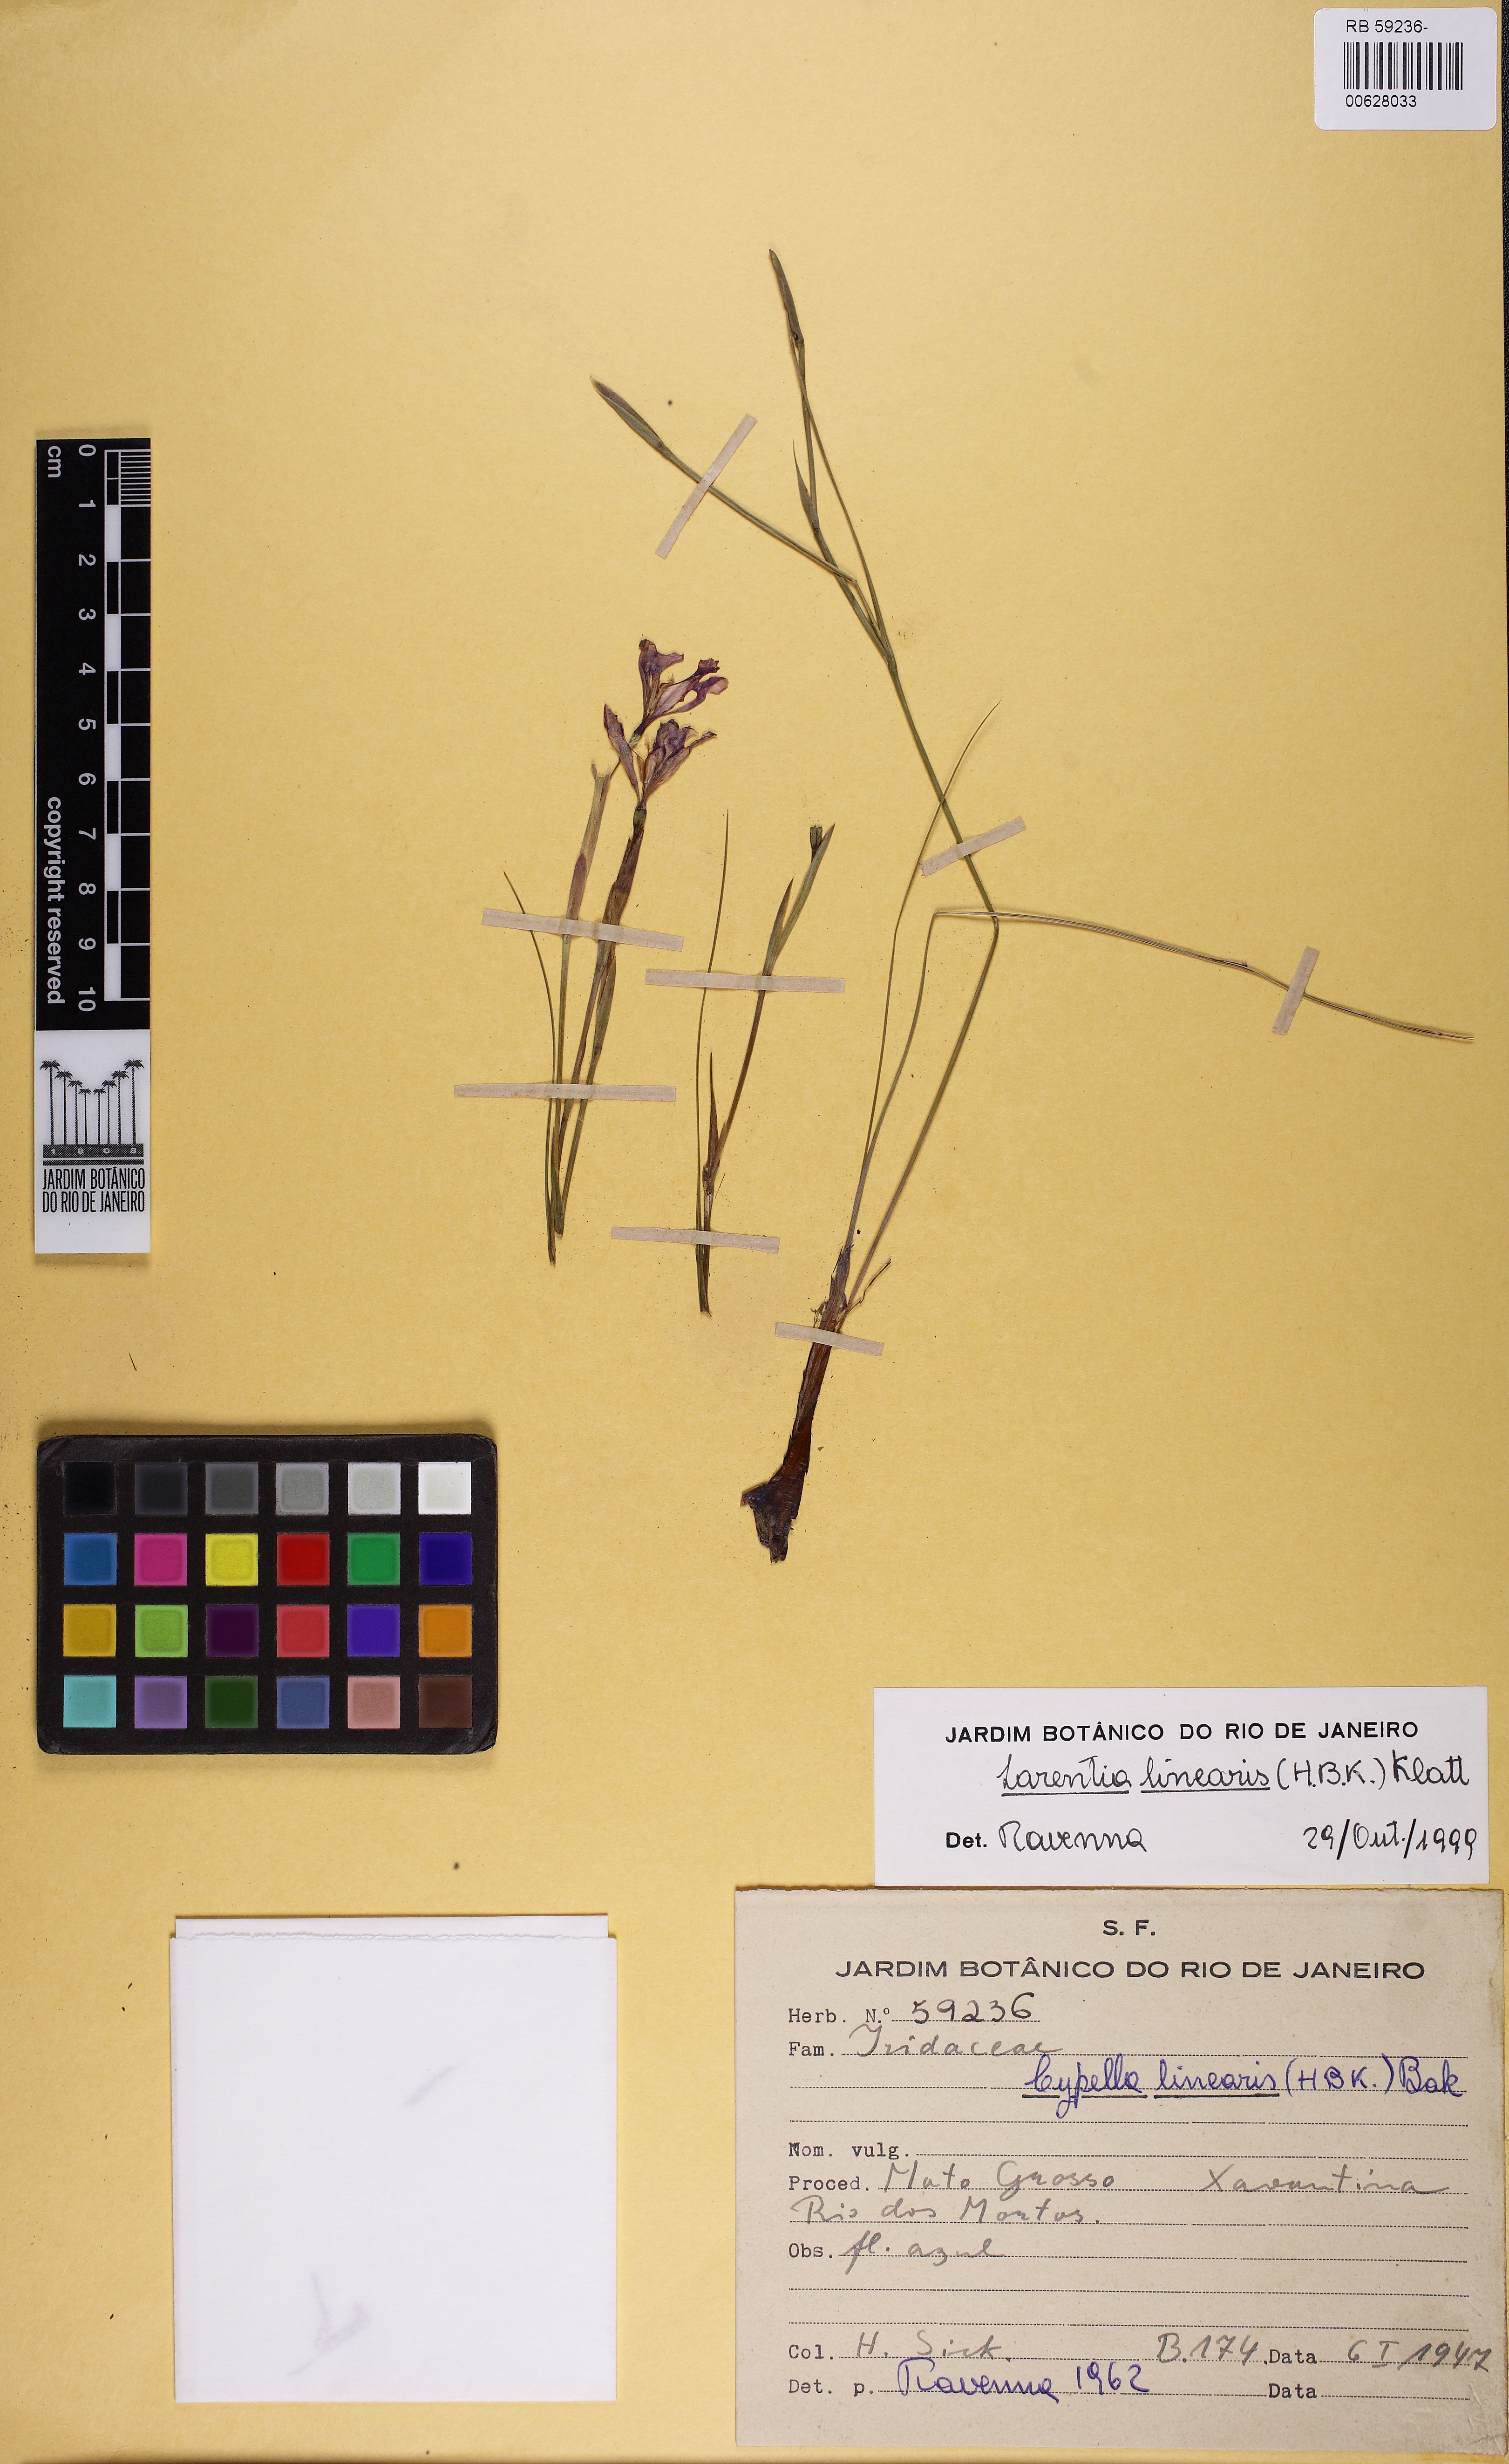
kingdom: Plantae
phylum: Tracheophyta
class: Liliopsida
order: Asparagales
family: Iridaceae
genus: Larentia
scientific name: Larentia linearis
